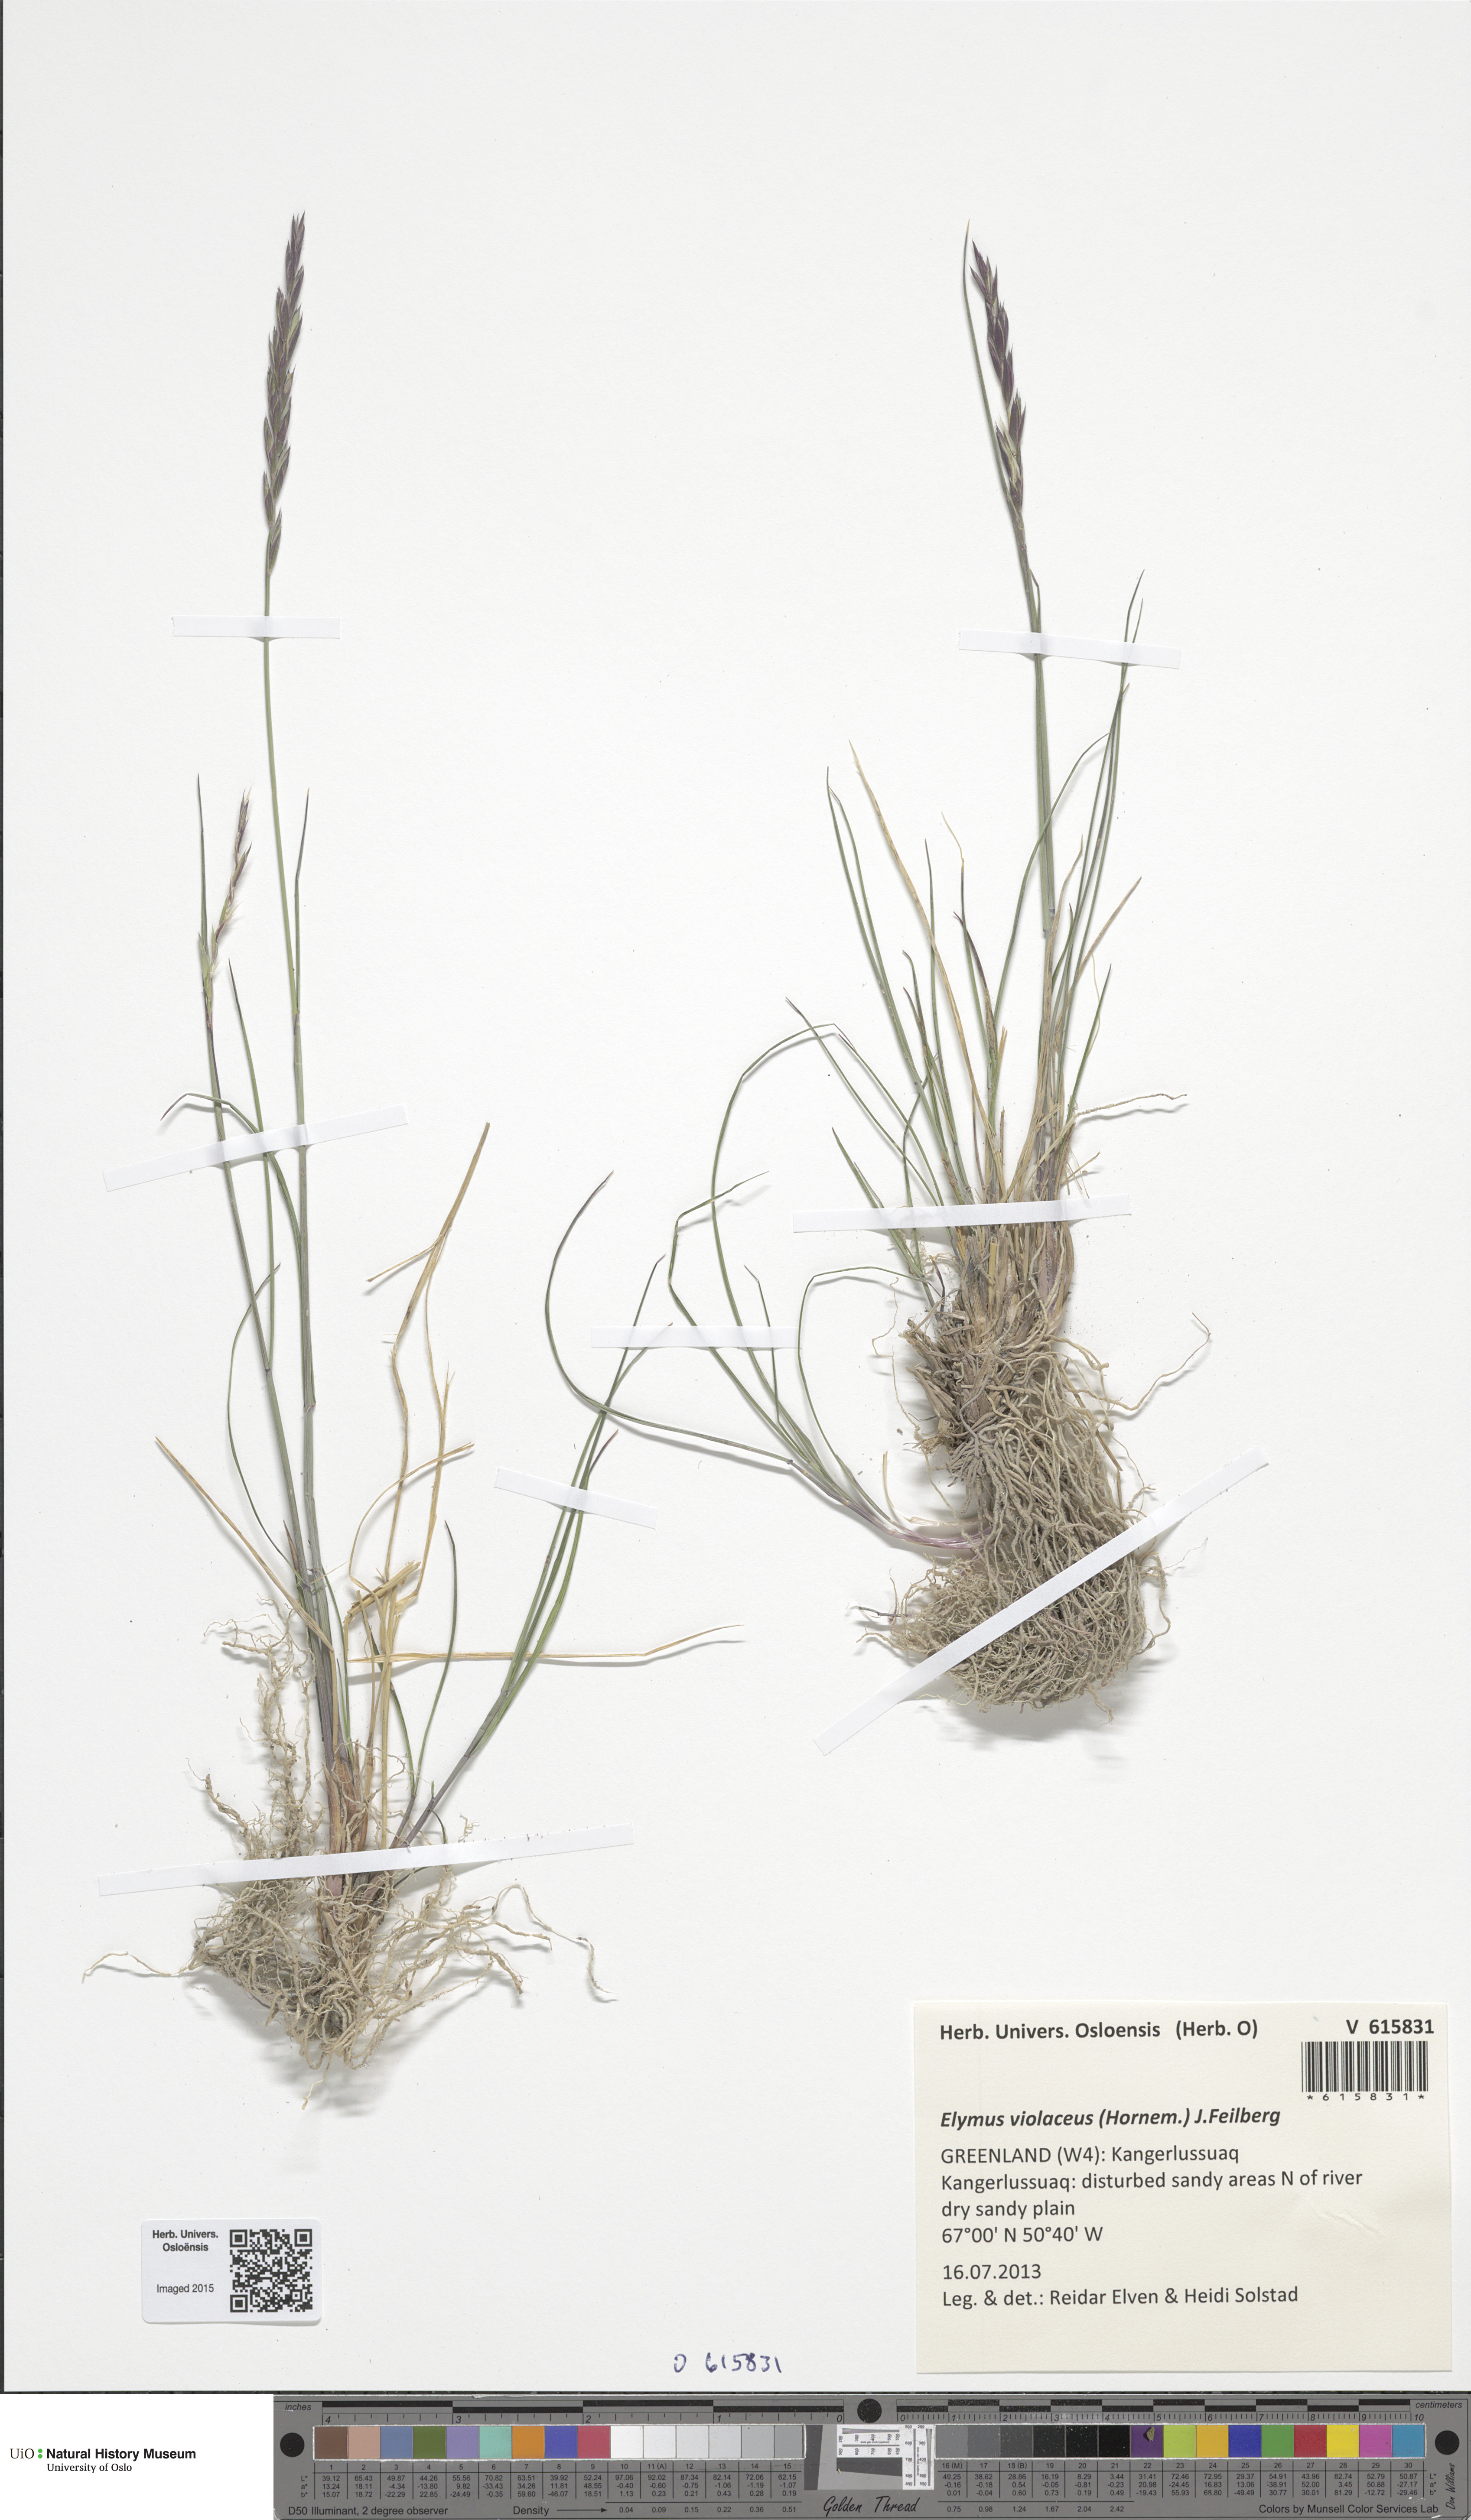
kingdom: Plantae
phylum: Tracheophyta
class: Liliopsida
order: Poales
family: Poaceae
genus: Elymus
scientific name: Elymus violaceus
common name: Arctic wheatgrass
